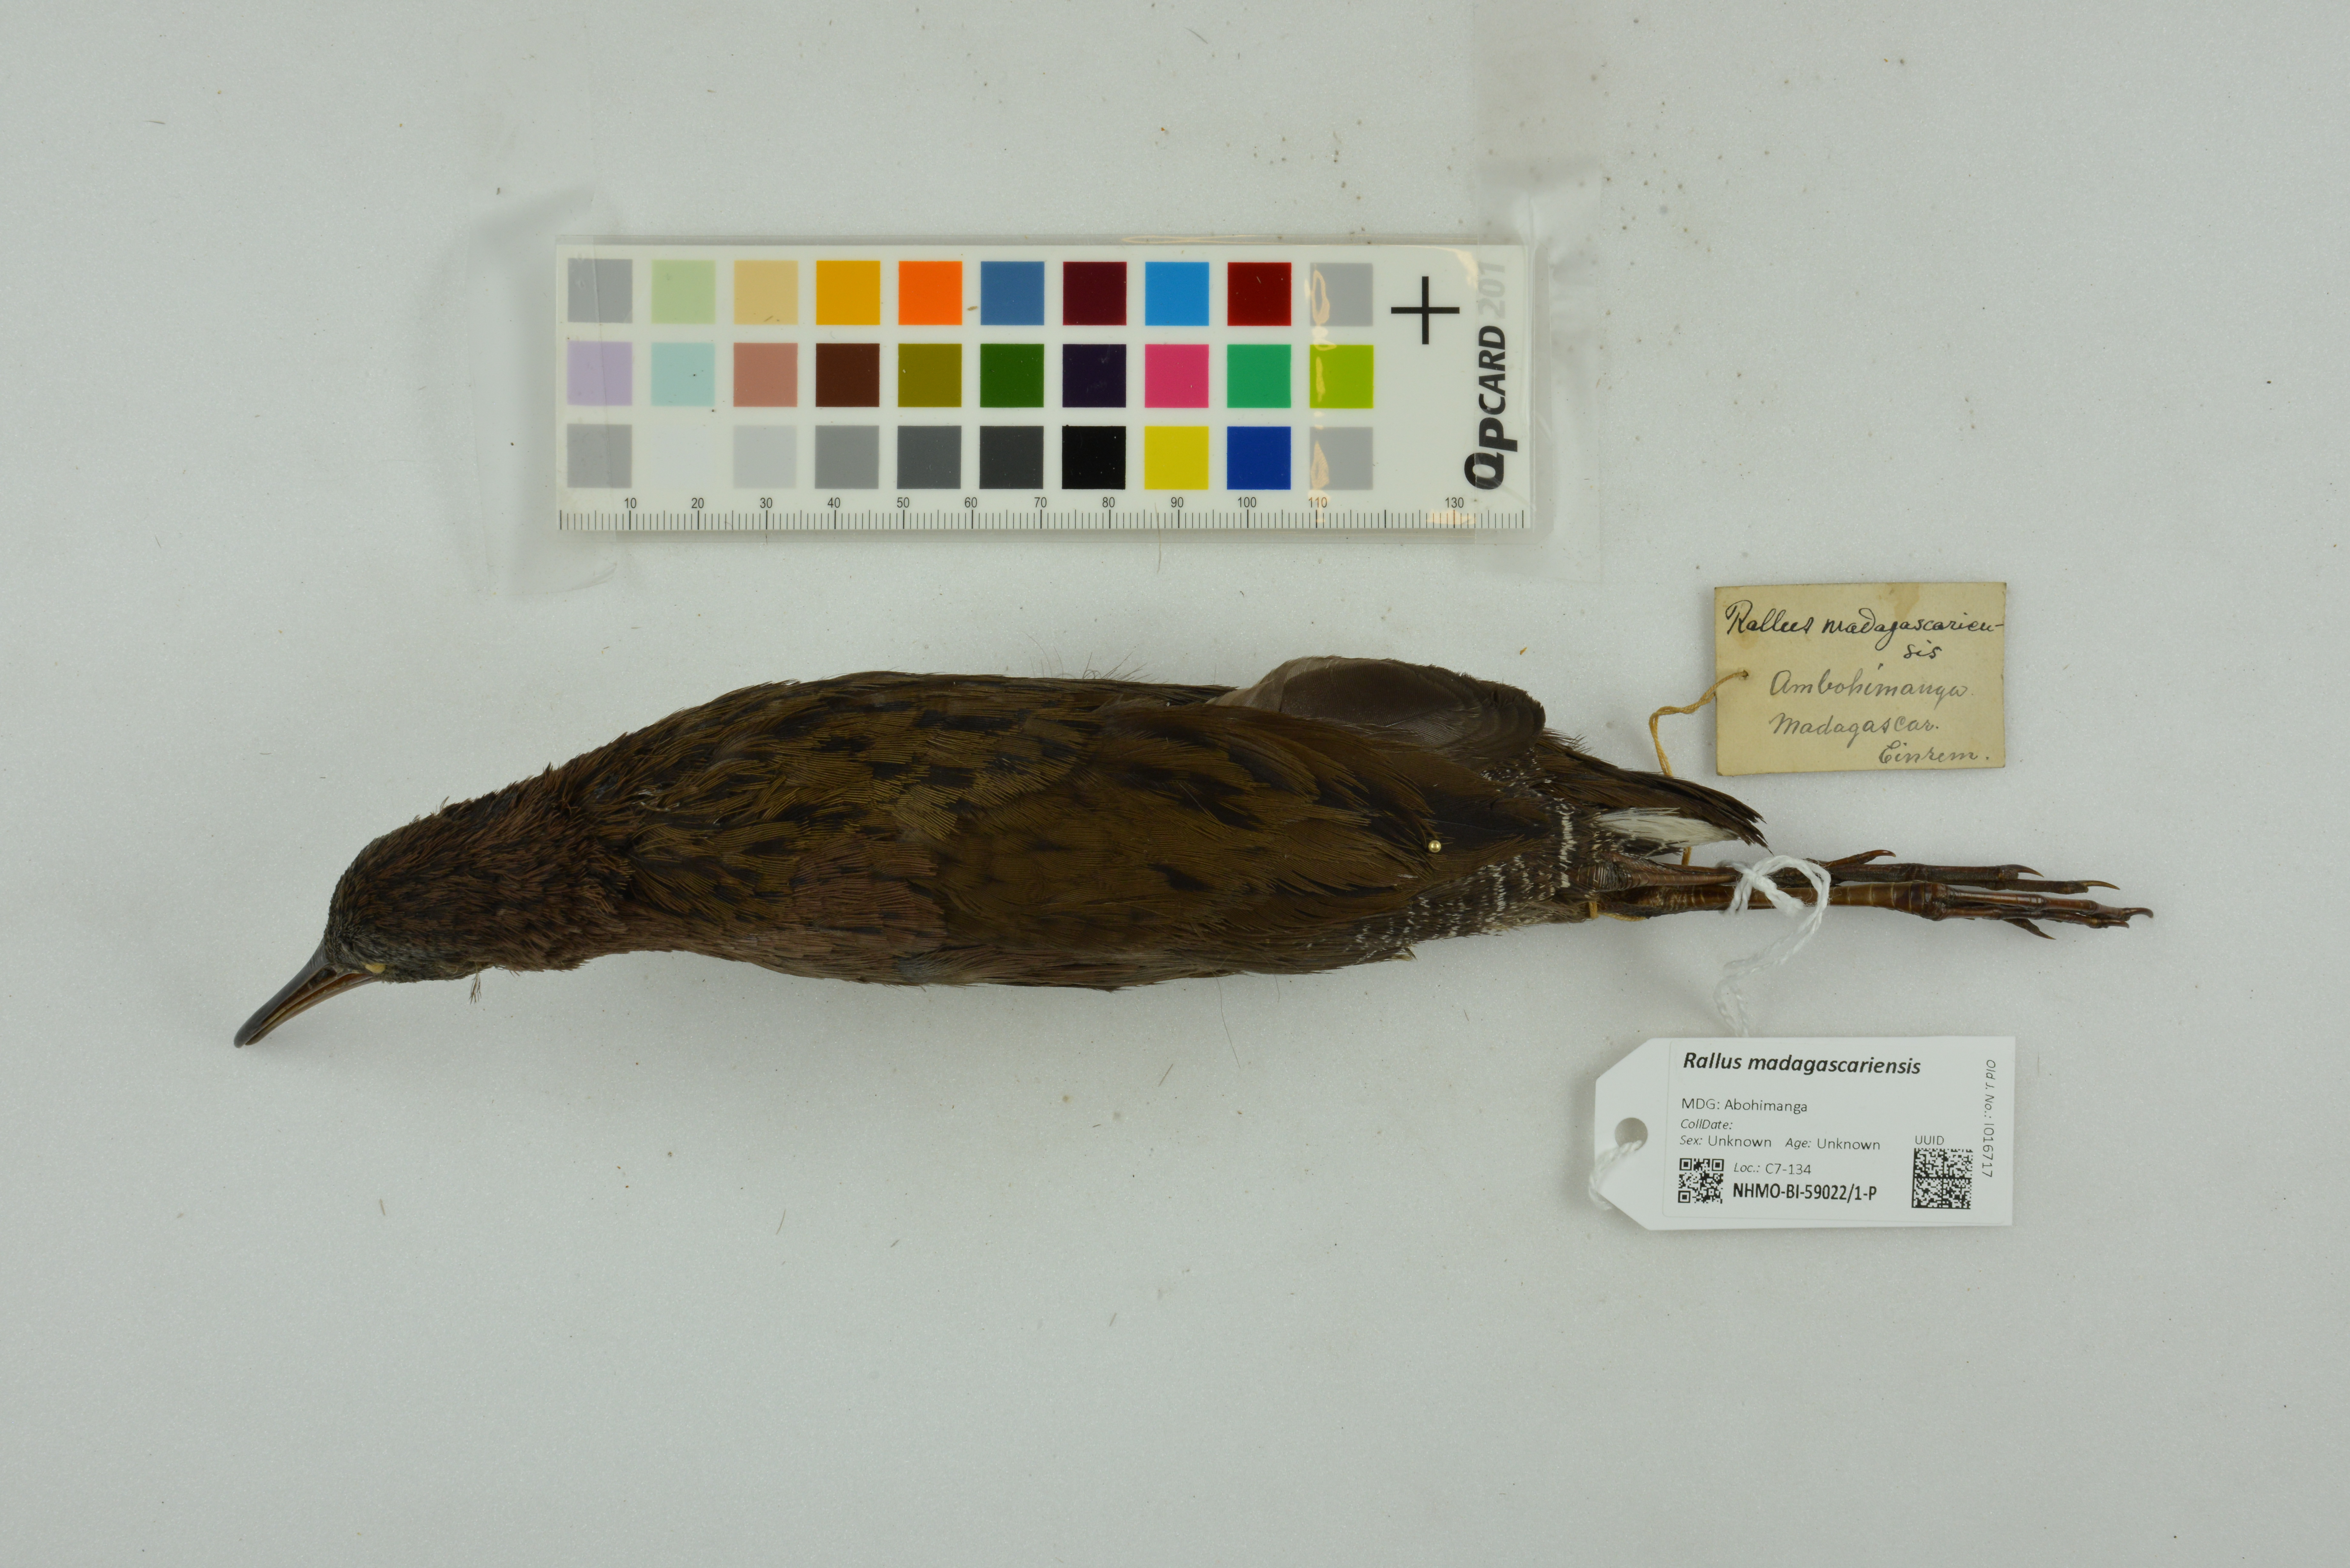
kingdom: Animalia
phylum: Chordata
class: Aves
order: Gruiformes
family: Rallidae
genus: Rallus
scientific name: Rallus madagascariensis
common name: Madagascar rail
